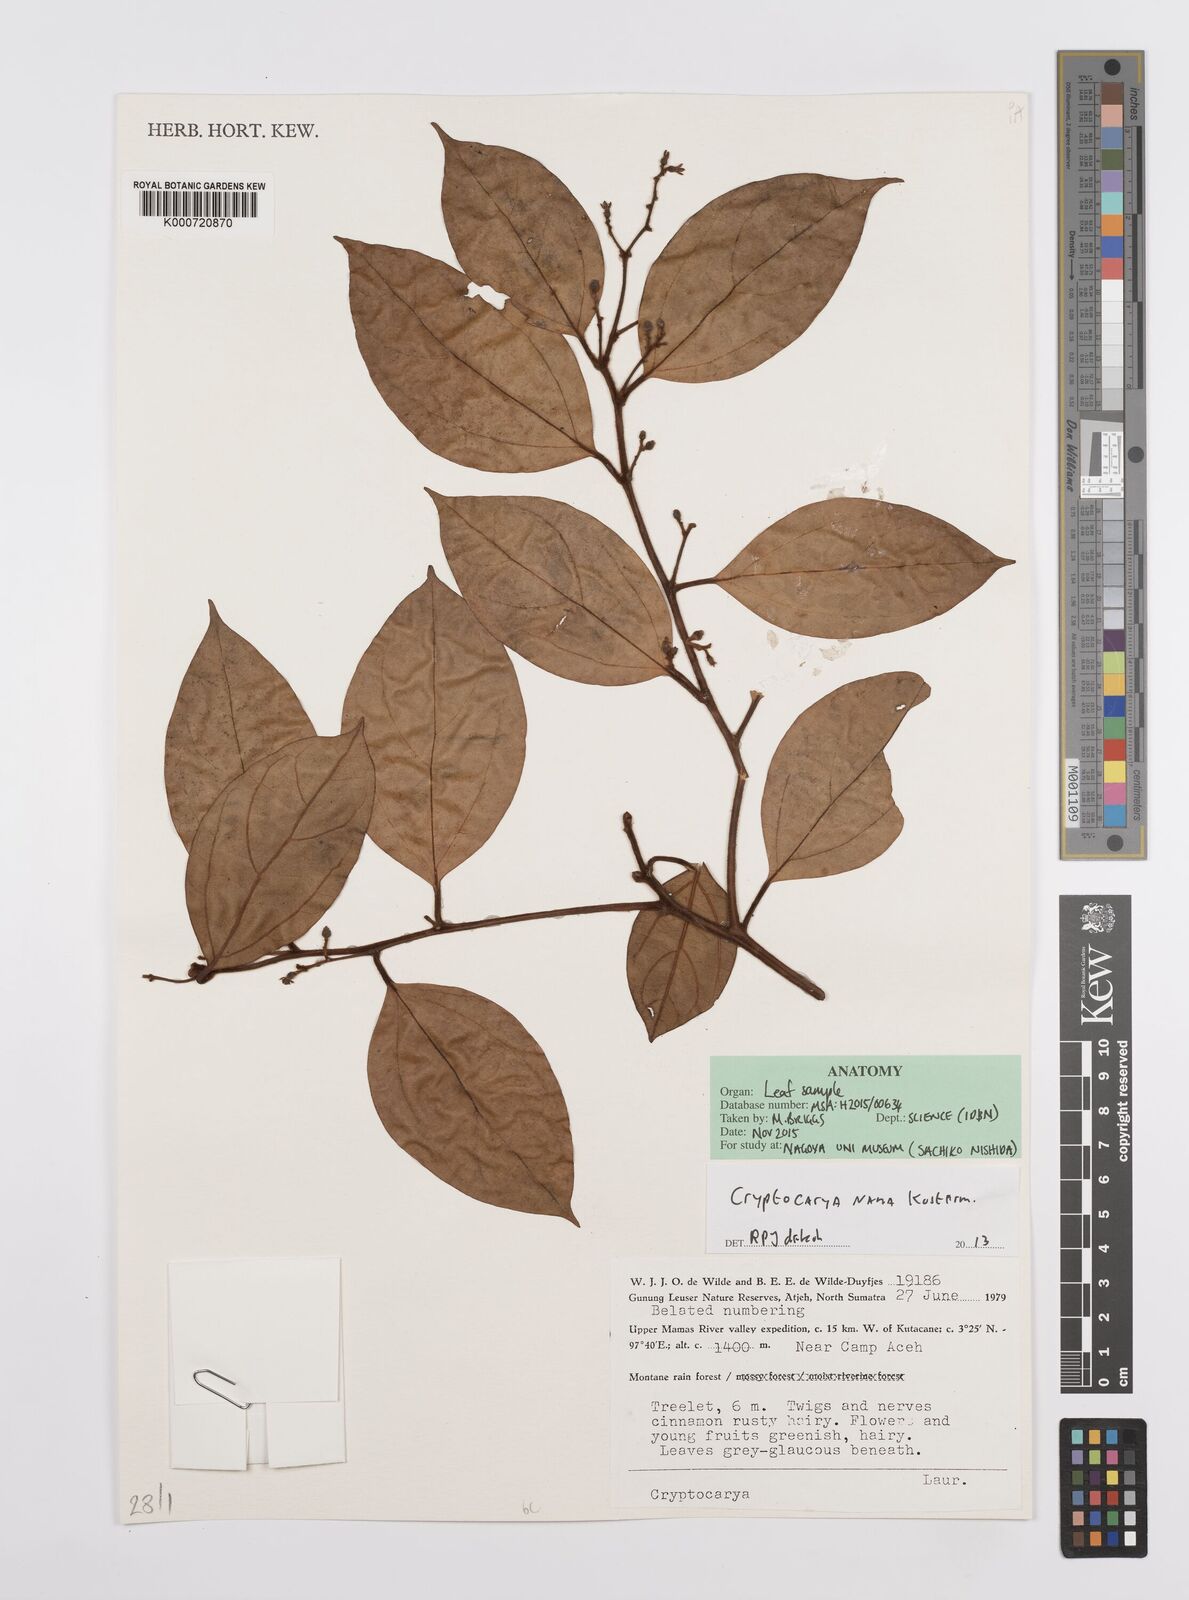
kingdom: Plantae
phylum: Tracheophyta
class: Magnoliopsida
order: Laurales
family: Lauraceae
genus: Cryptocarya
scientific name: Cryptocarya nana
